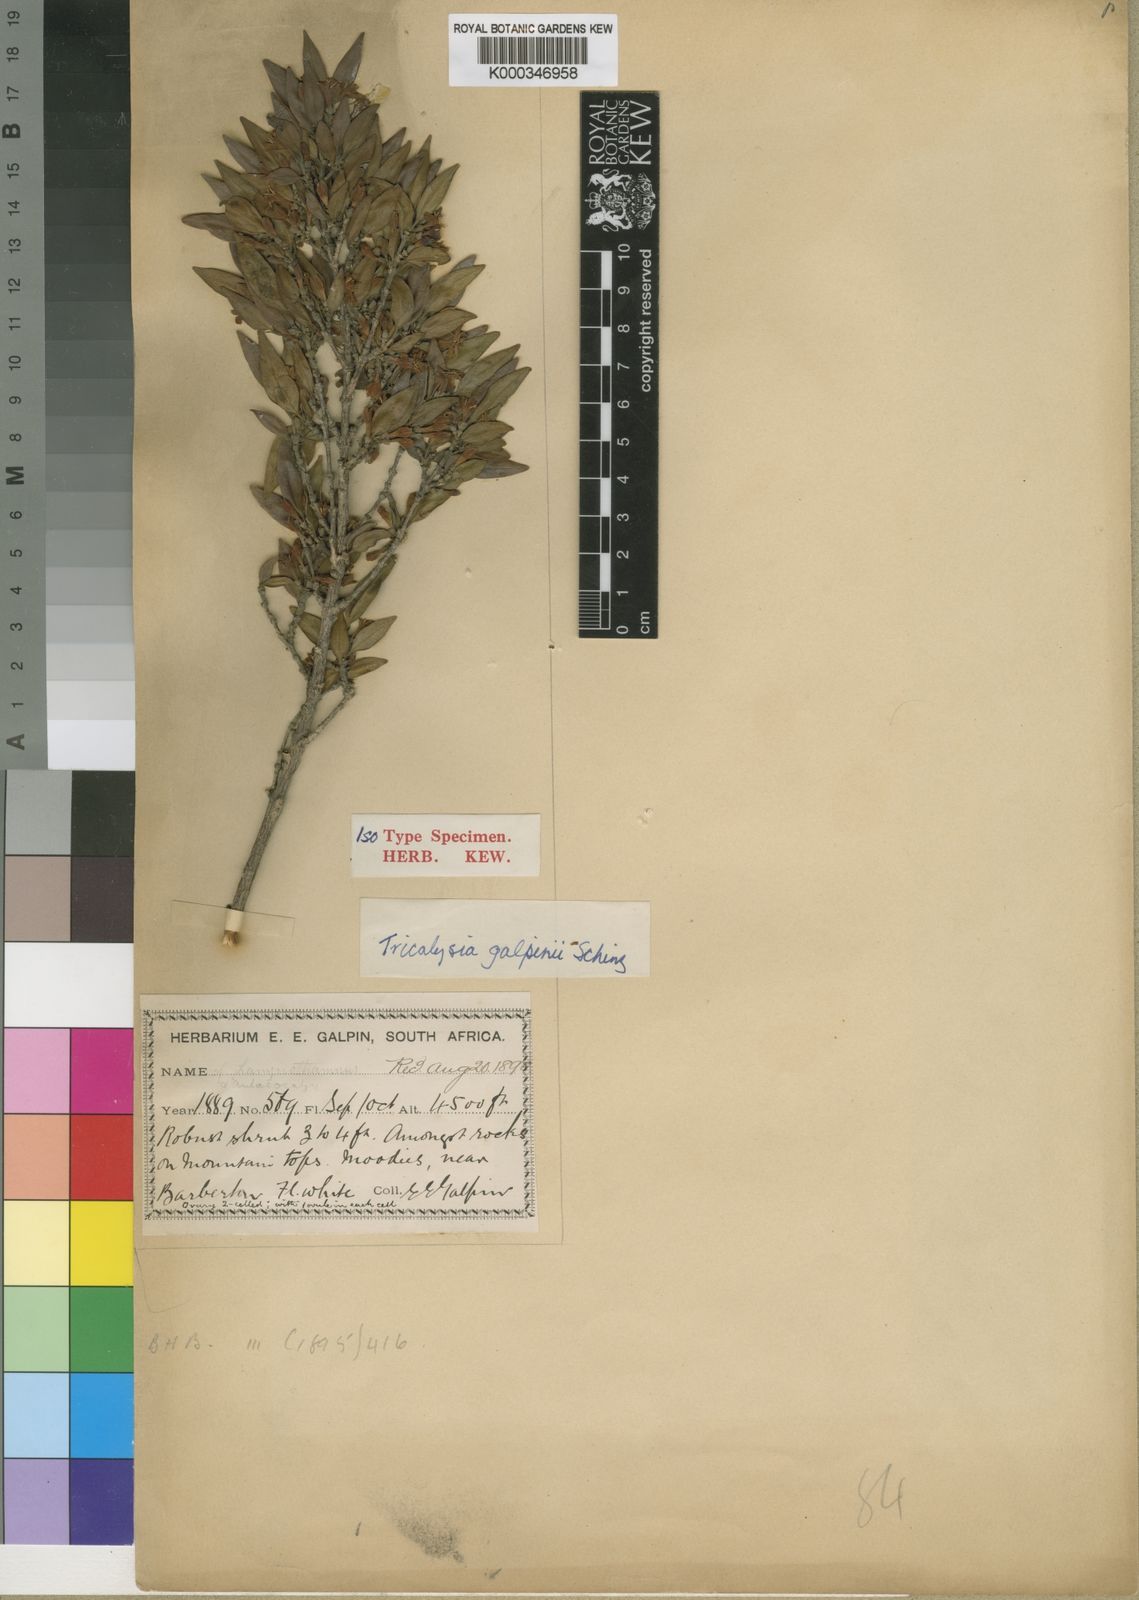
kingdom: Plantae
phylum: Tracheophyta
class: Magnoliopsida
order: Gentianales
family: Rubiaceae
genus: Tricalysia
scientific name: Tricalysia capensis
